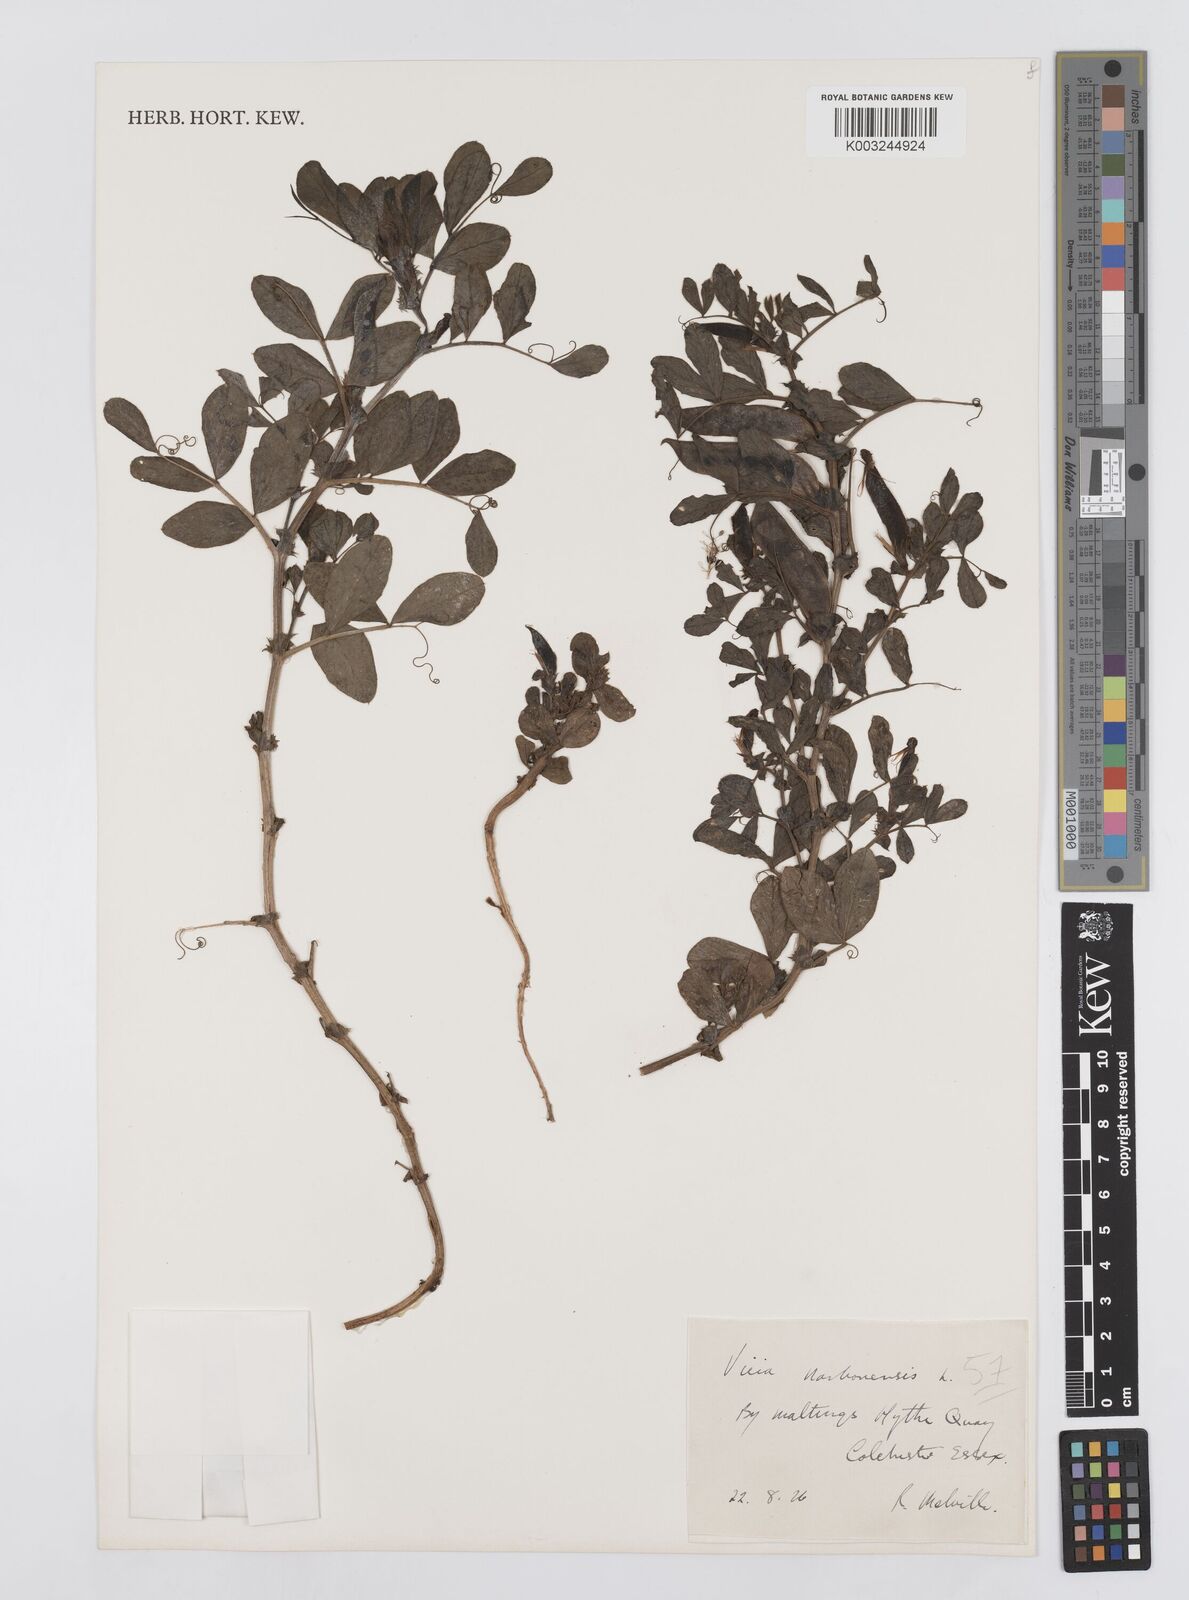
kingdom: Plantae
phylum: Tracheophyta
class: Magnoliopsida
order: Fabales
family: Fabaceae
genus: Vicia
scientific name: Vicia narbonensis
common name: Narbonne vetch
